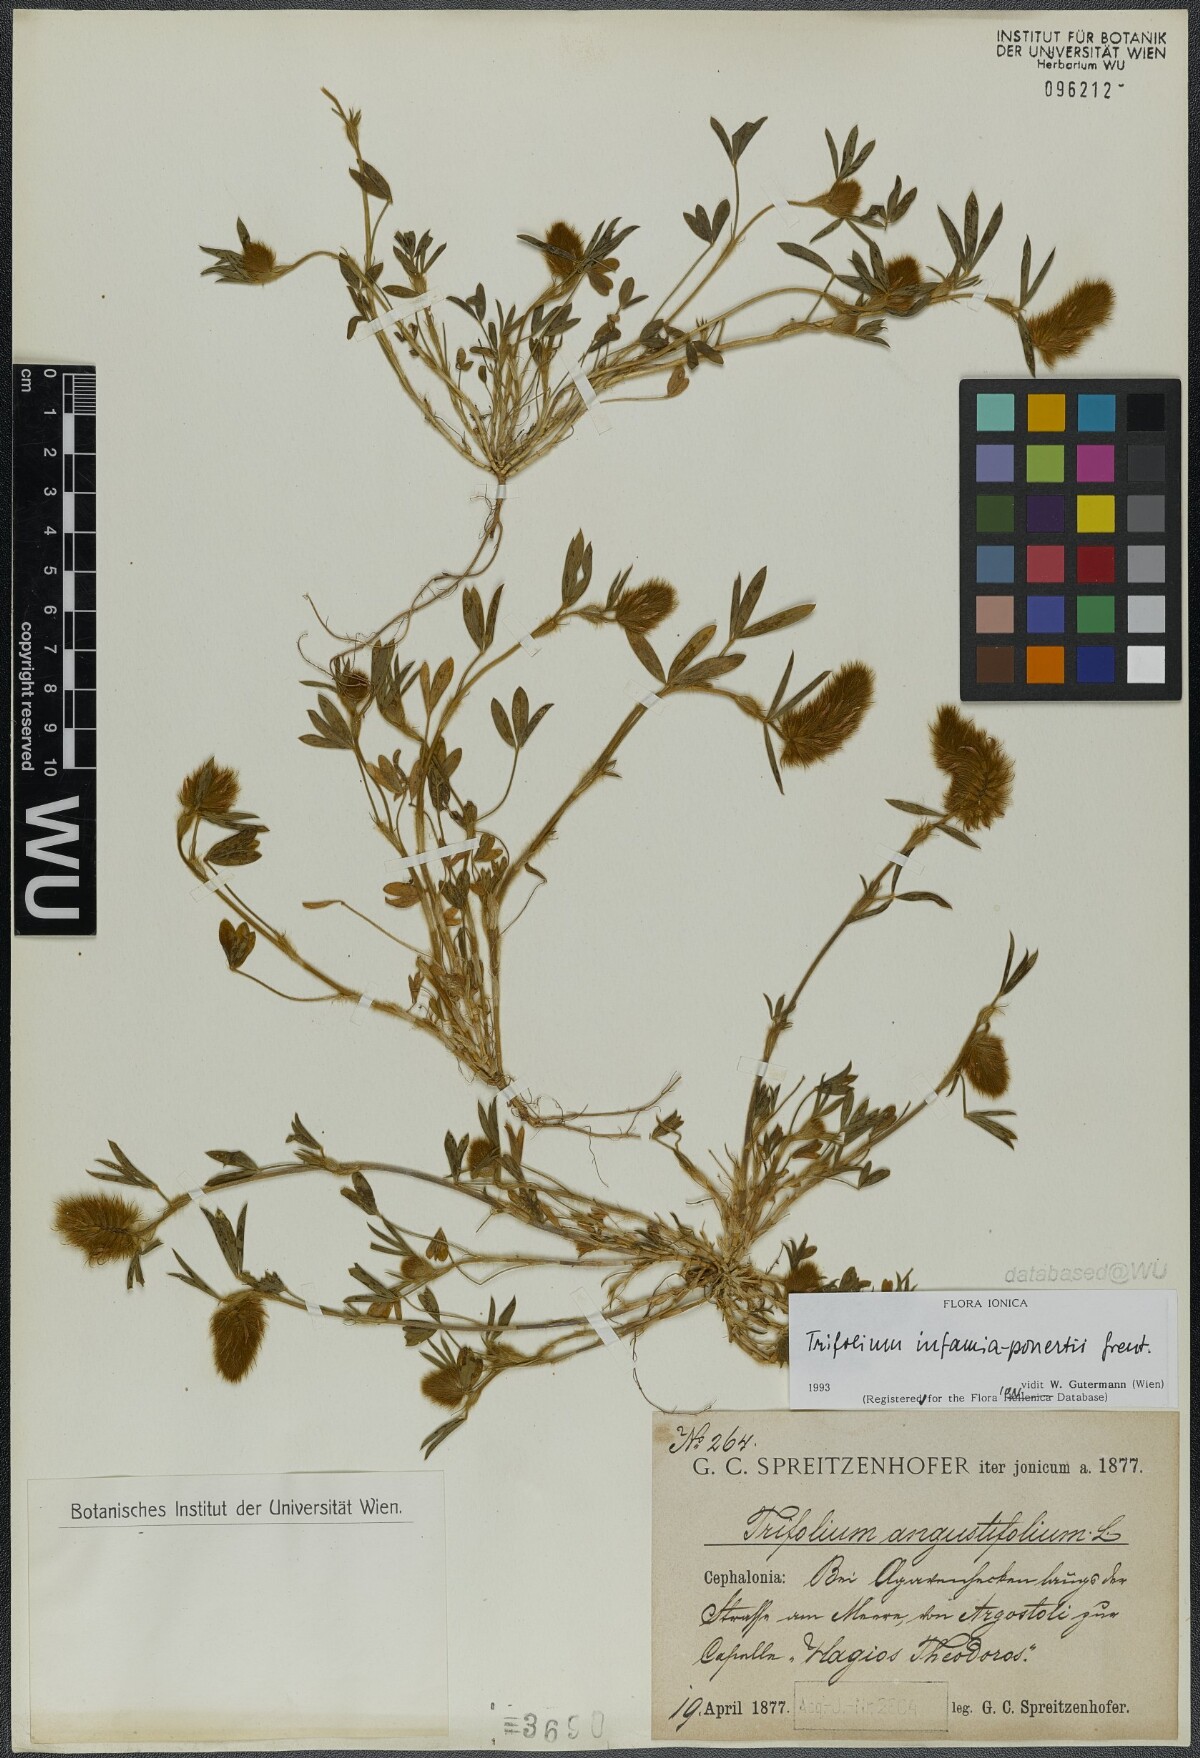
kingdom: Plantae
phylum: Tracheophyta
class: Magnoliopsida
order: Fabales
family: Fabaceae
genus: Trifolium
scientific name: Trifolium infamia-ponertii
